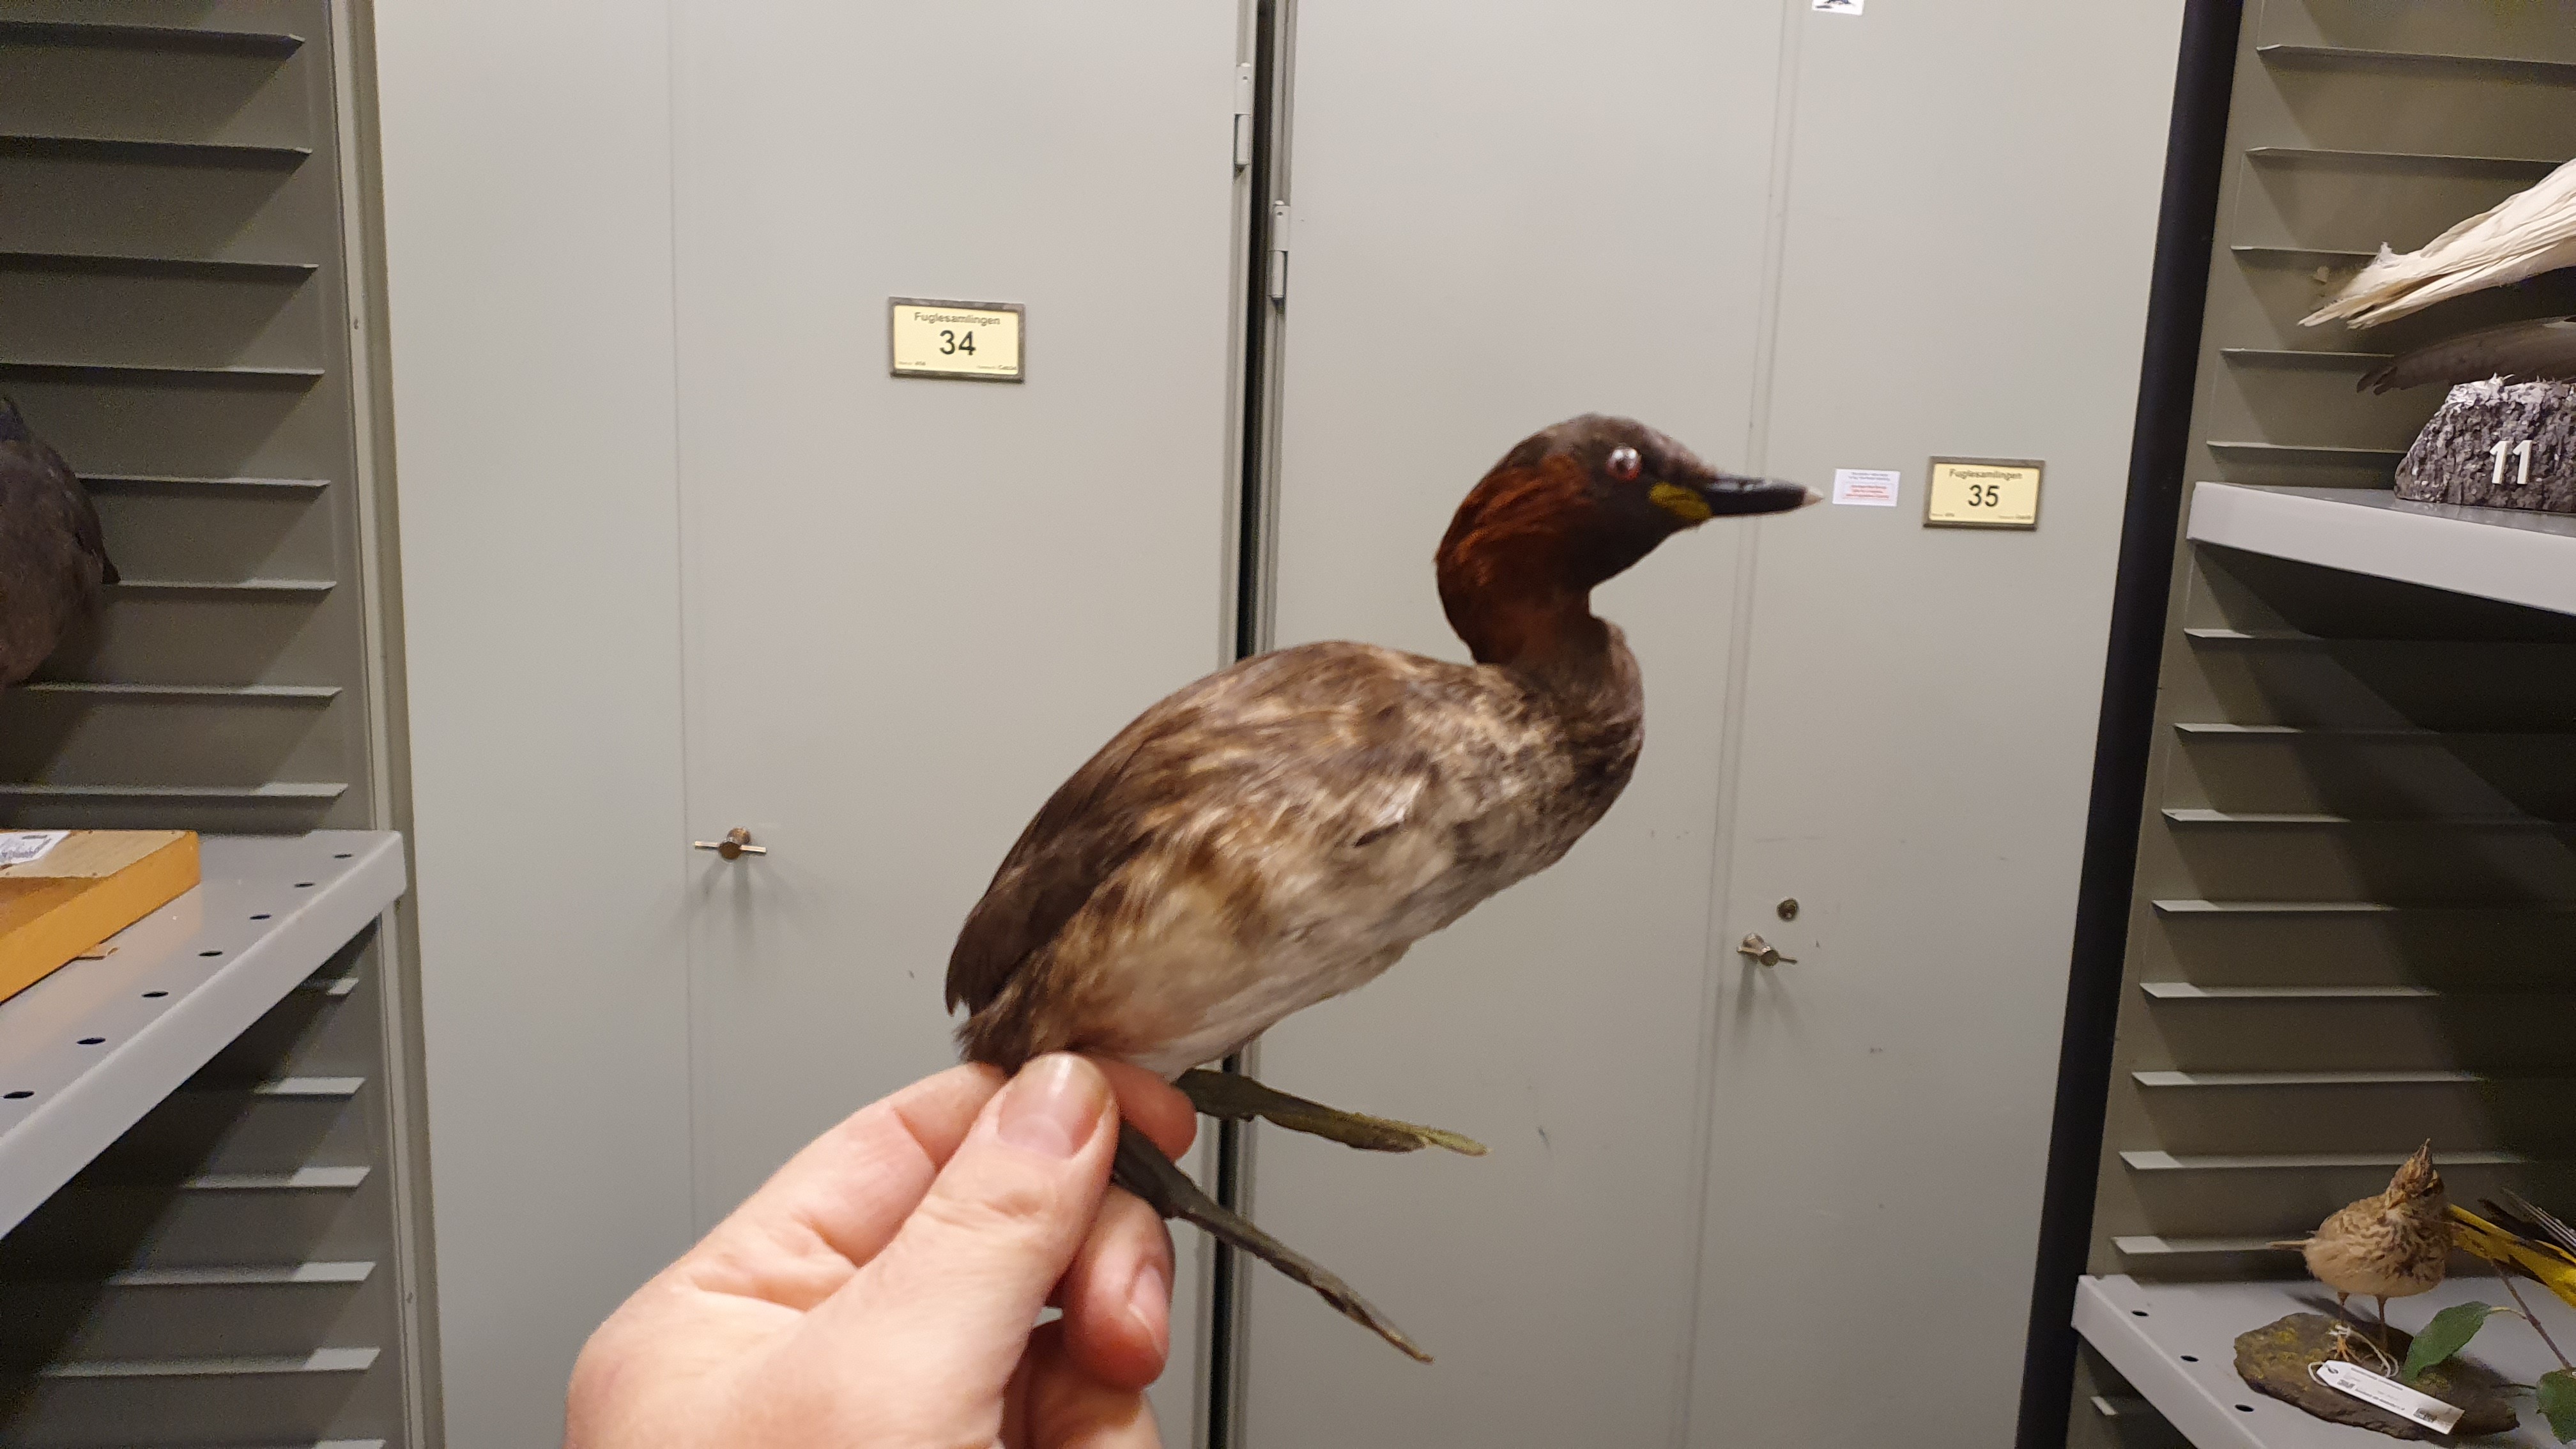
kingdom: Animalia
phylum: Chordata
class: Aves
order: Podicipediformes
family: Podicipedidae
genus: Tachybaptus
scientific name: Tachybaptus ruficollis
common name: Little grebe
